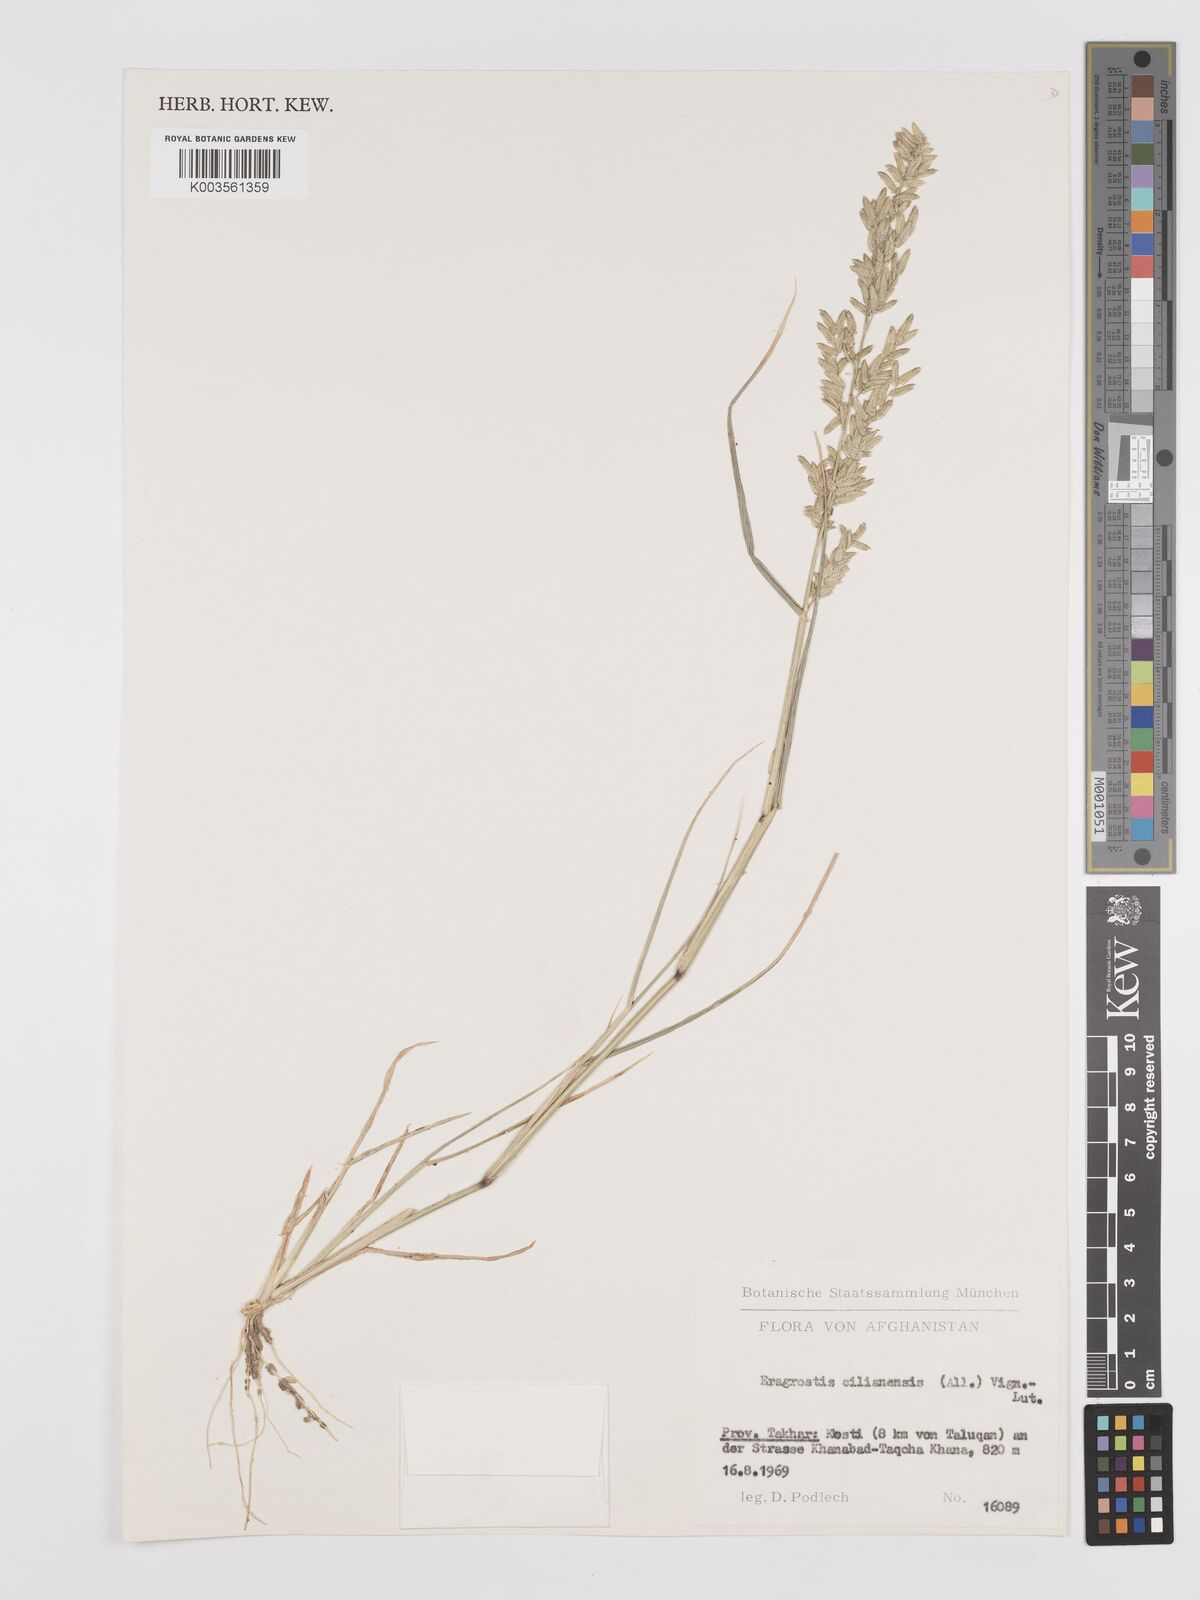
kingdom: Plantae
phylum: Tracheophyta
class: Liliopsida
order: Poales
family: Poaceae
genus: Eragrostis
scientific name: Eragrostis cilianensis
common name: Stinkgrass
